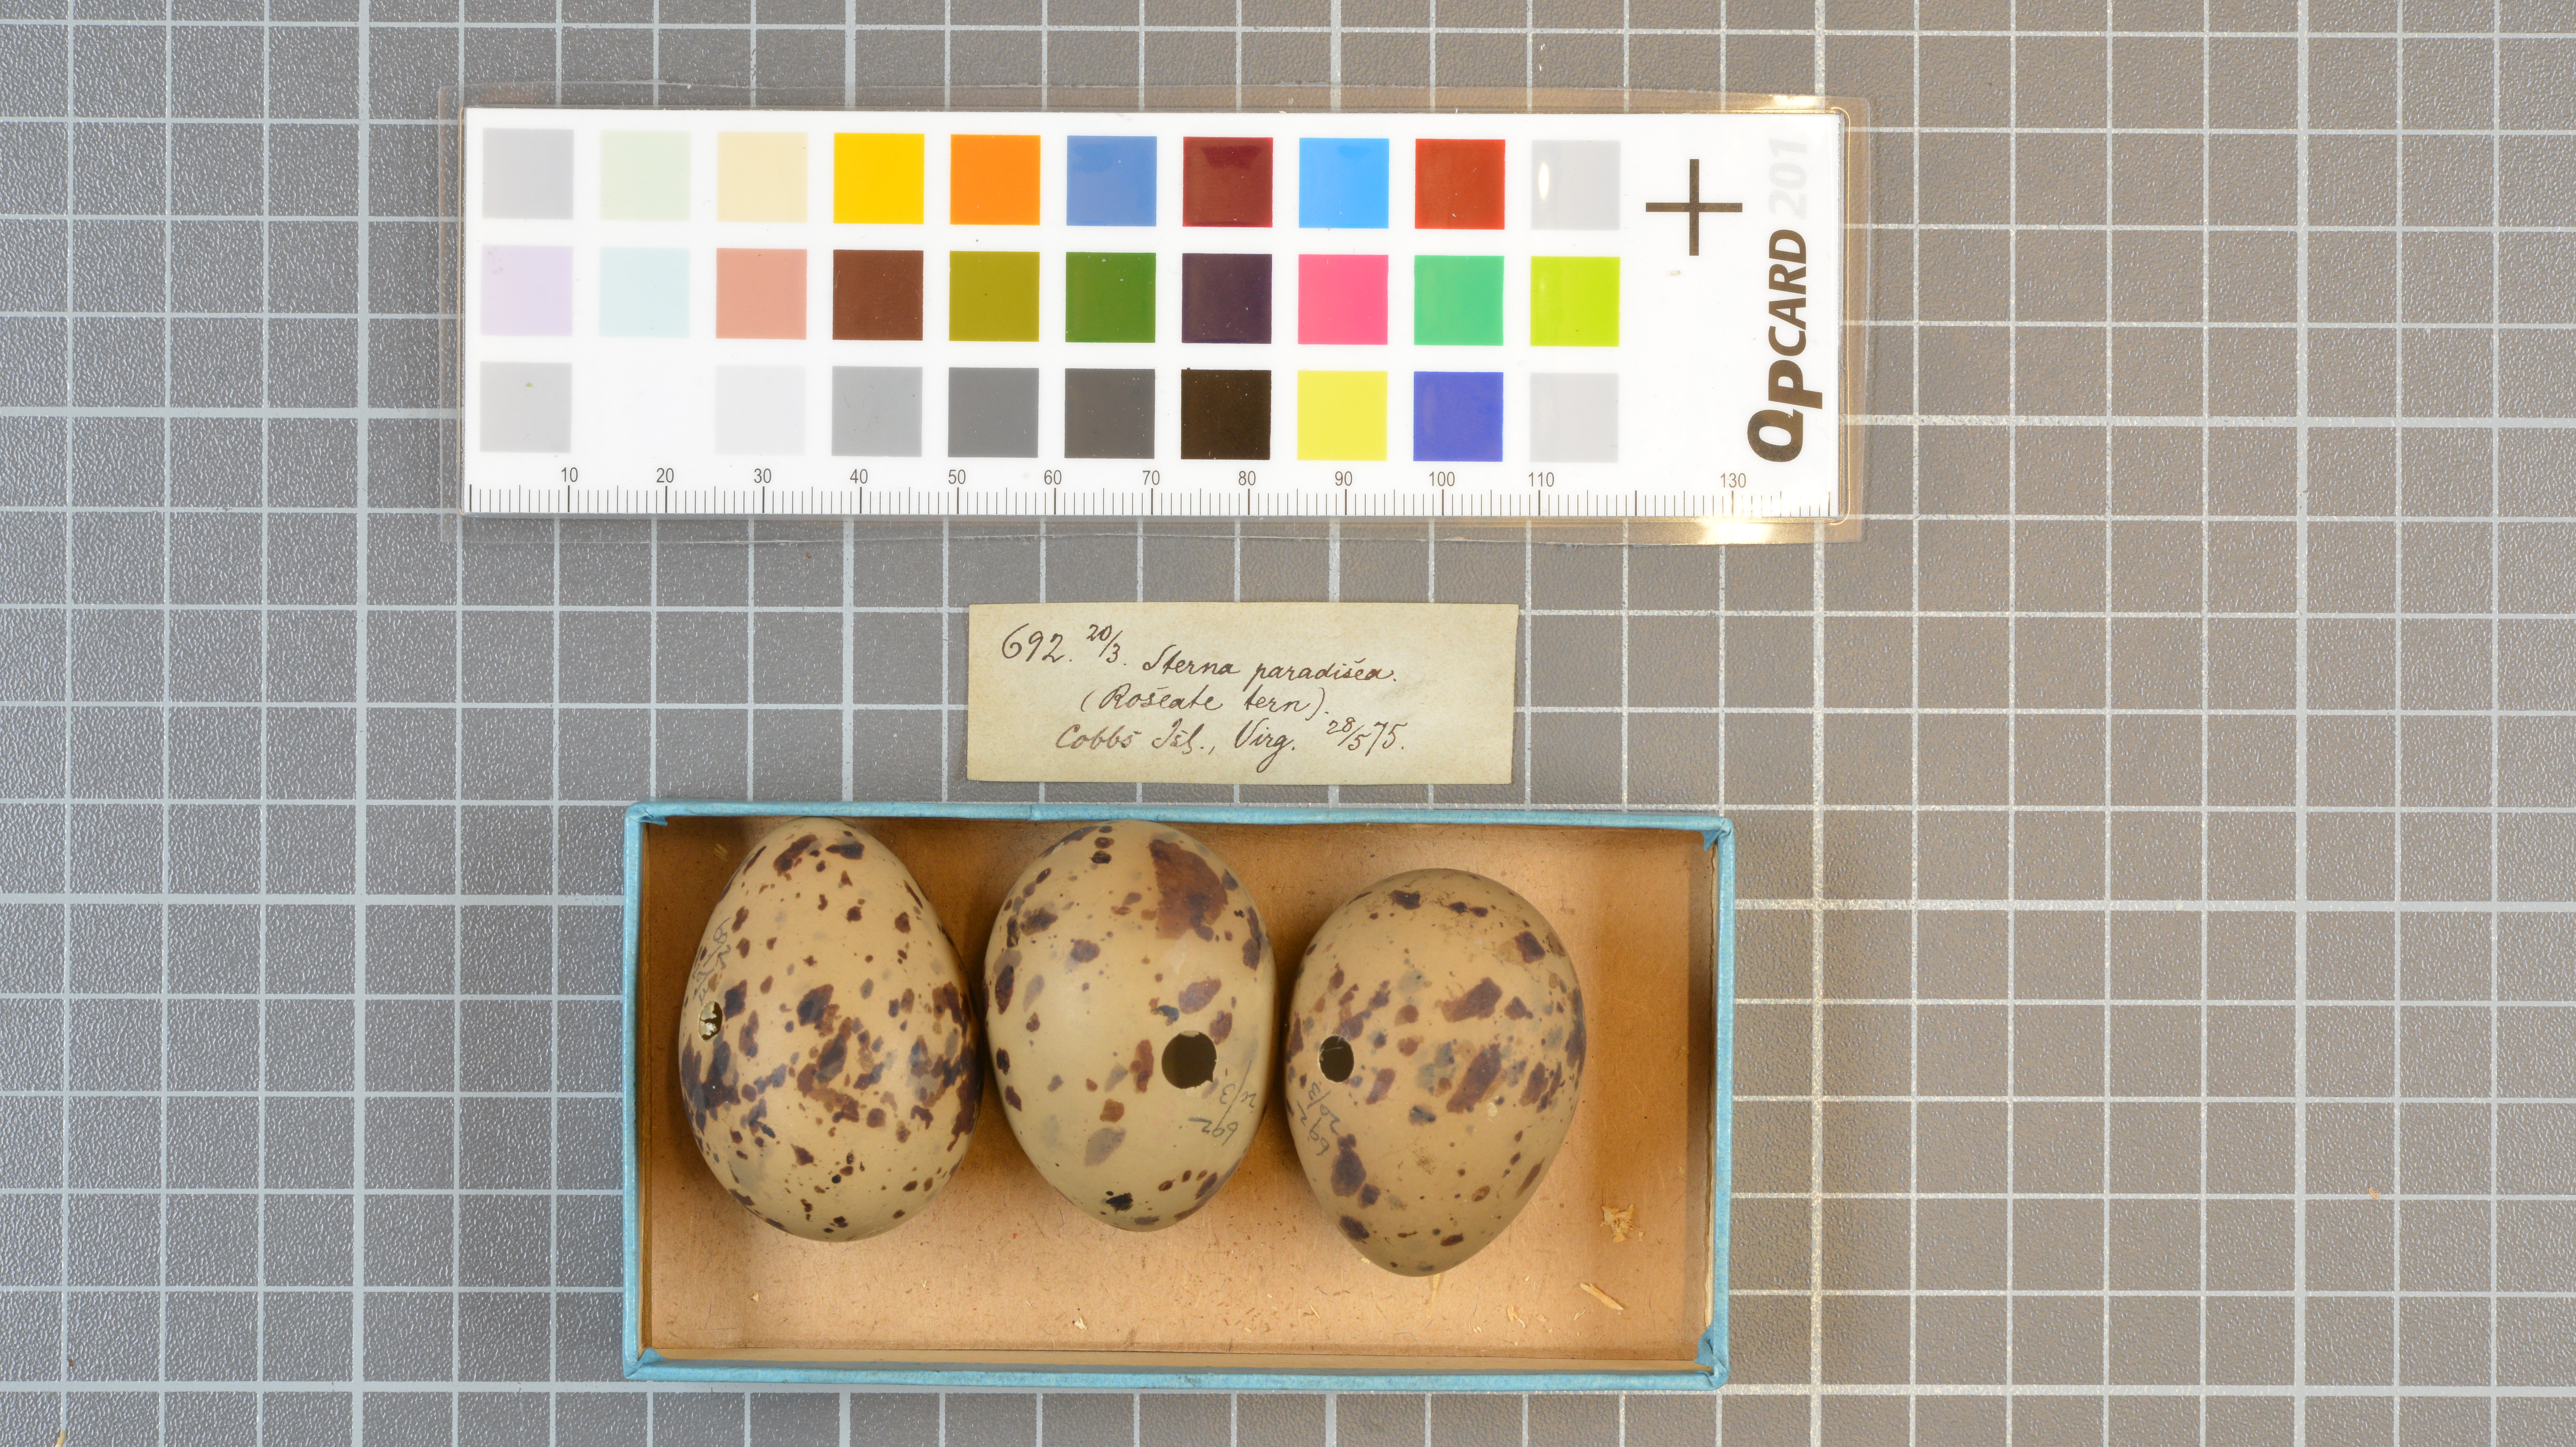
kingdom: Animalia
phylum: Chordata
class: Aves
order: Charadriiformes
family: Laridae
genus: Sterna
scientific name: Sterna paradisaea
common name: Arctic tern
